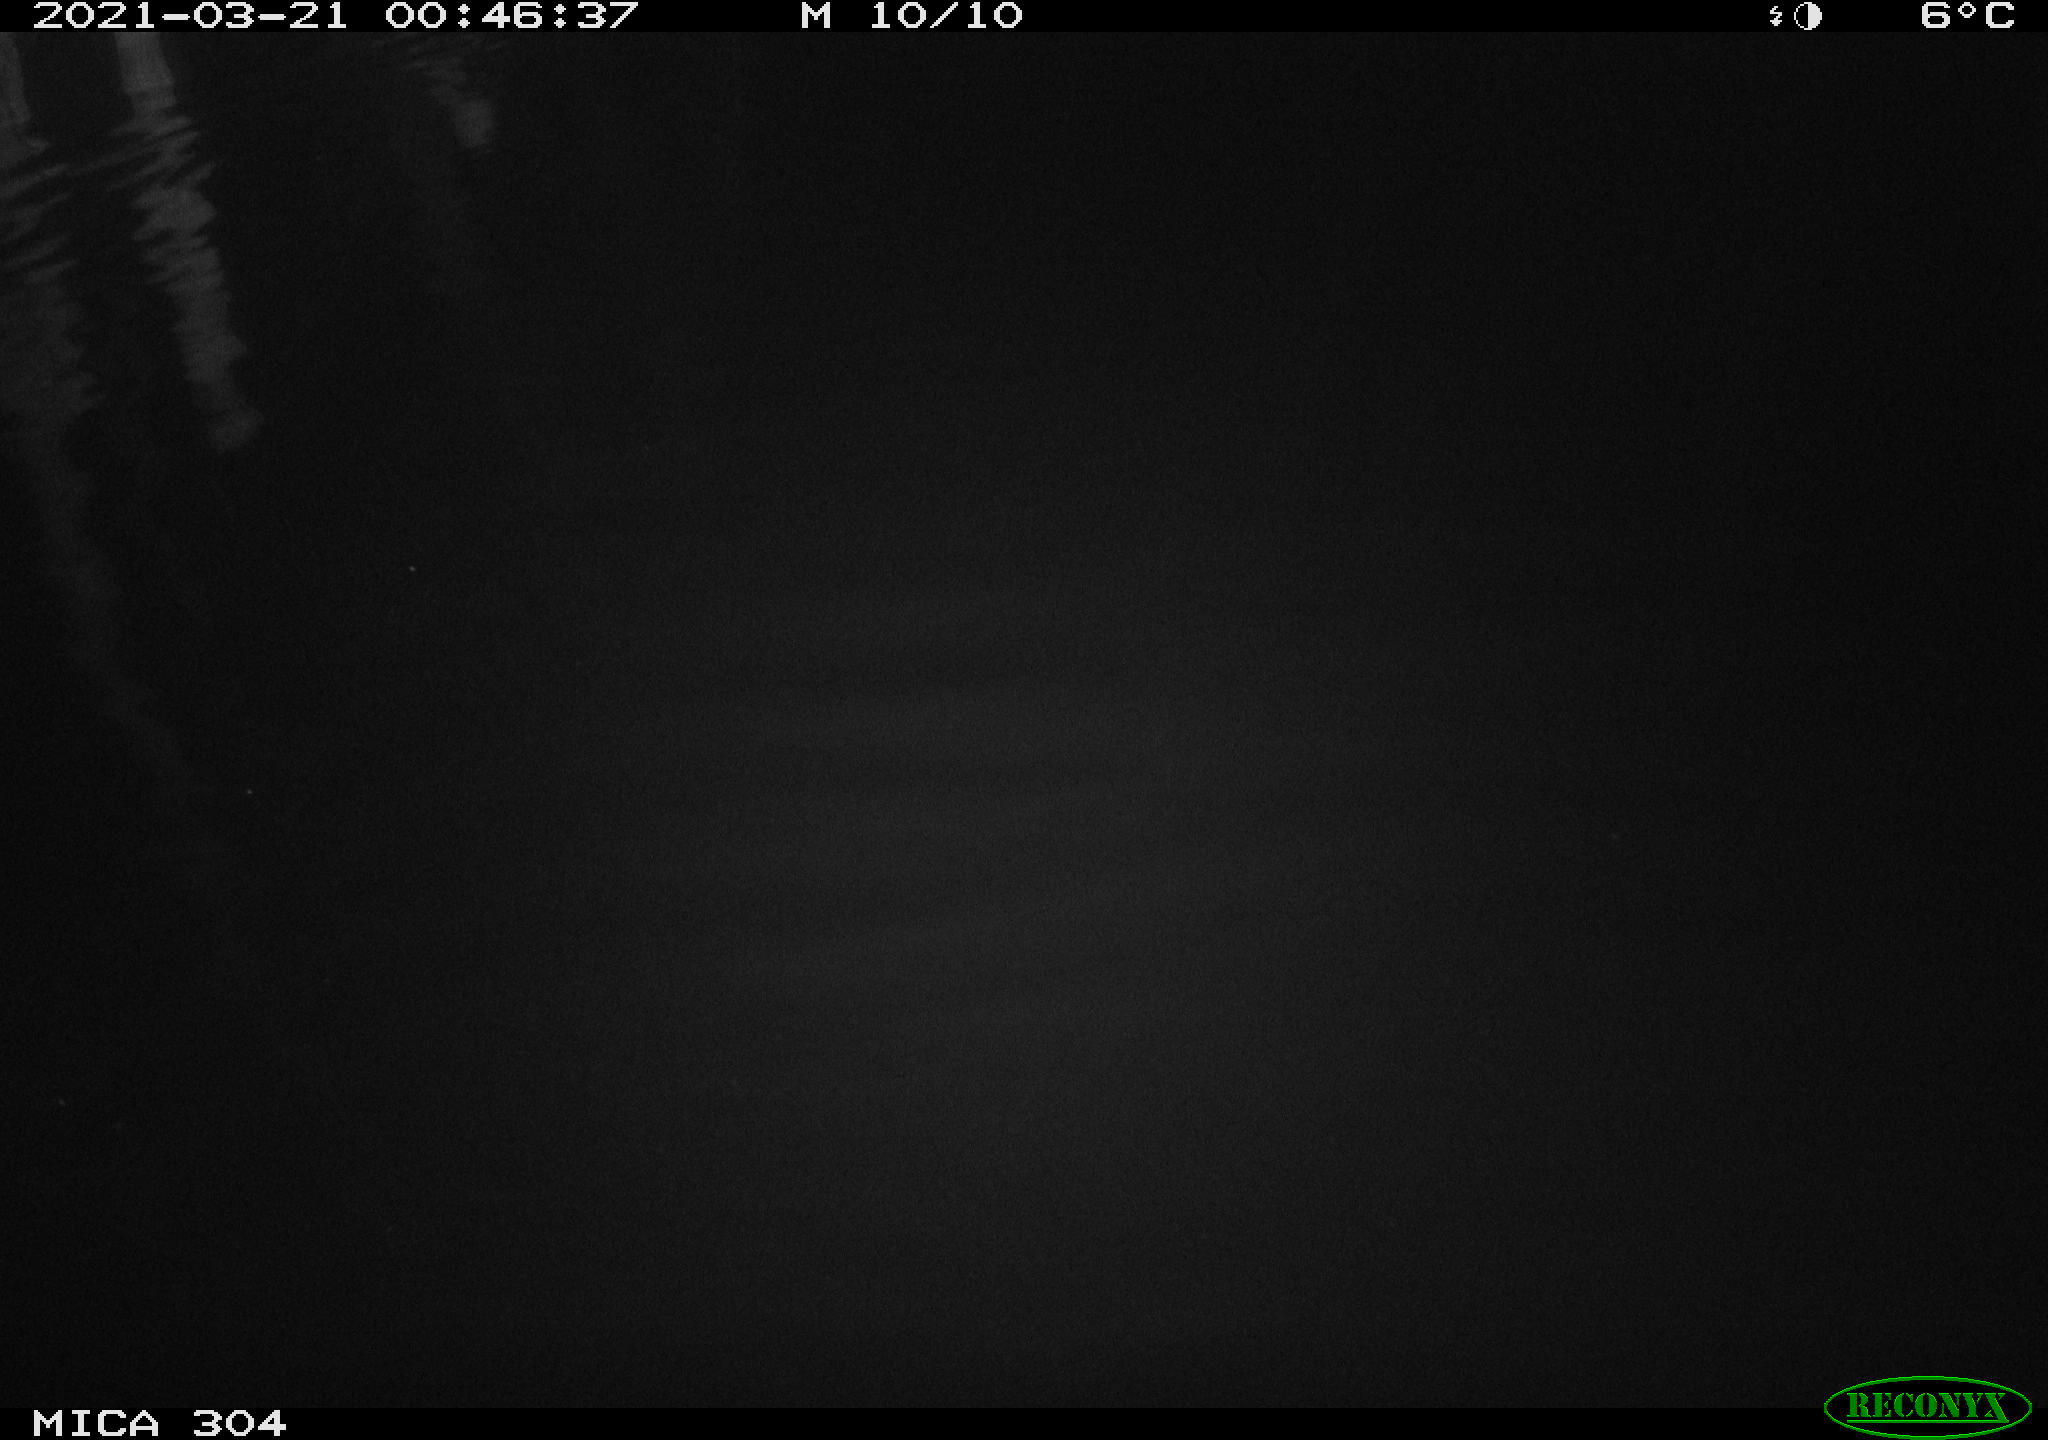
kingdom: Animalia
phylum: Chordata
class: Aves
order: Anseriformes
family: Anatidae
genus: Anas
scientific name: Anas platyrhynchos
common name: Mallard
